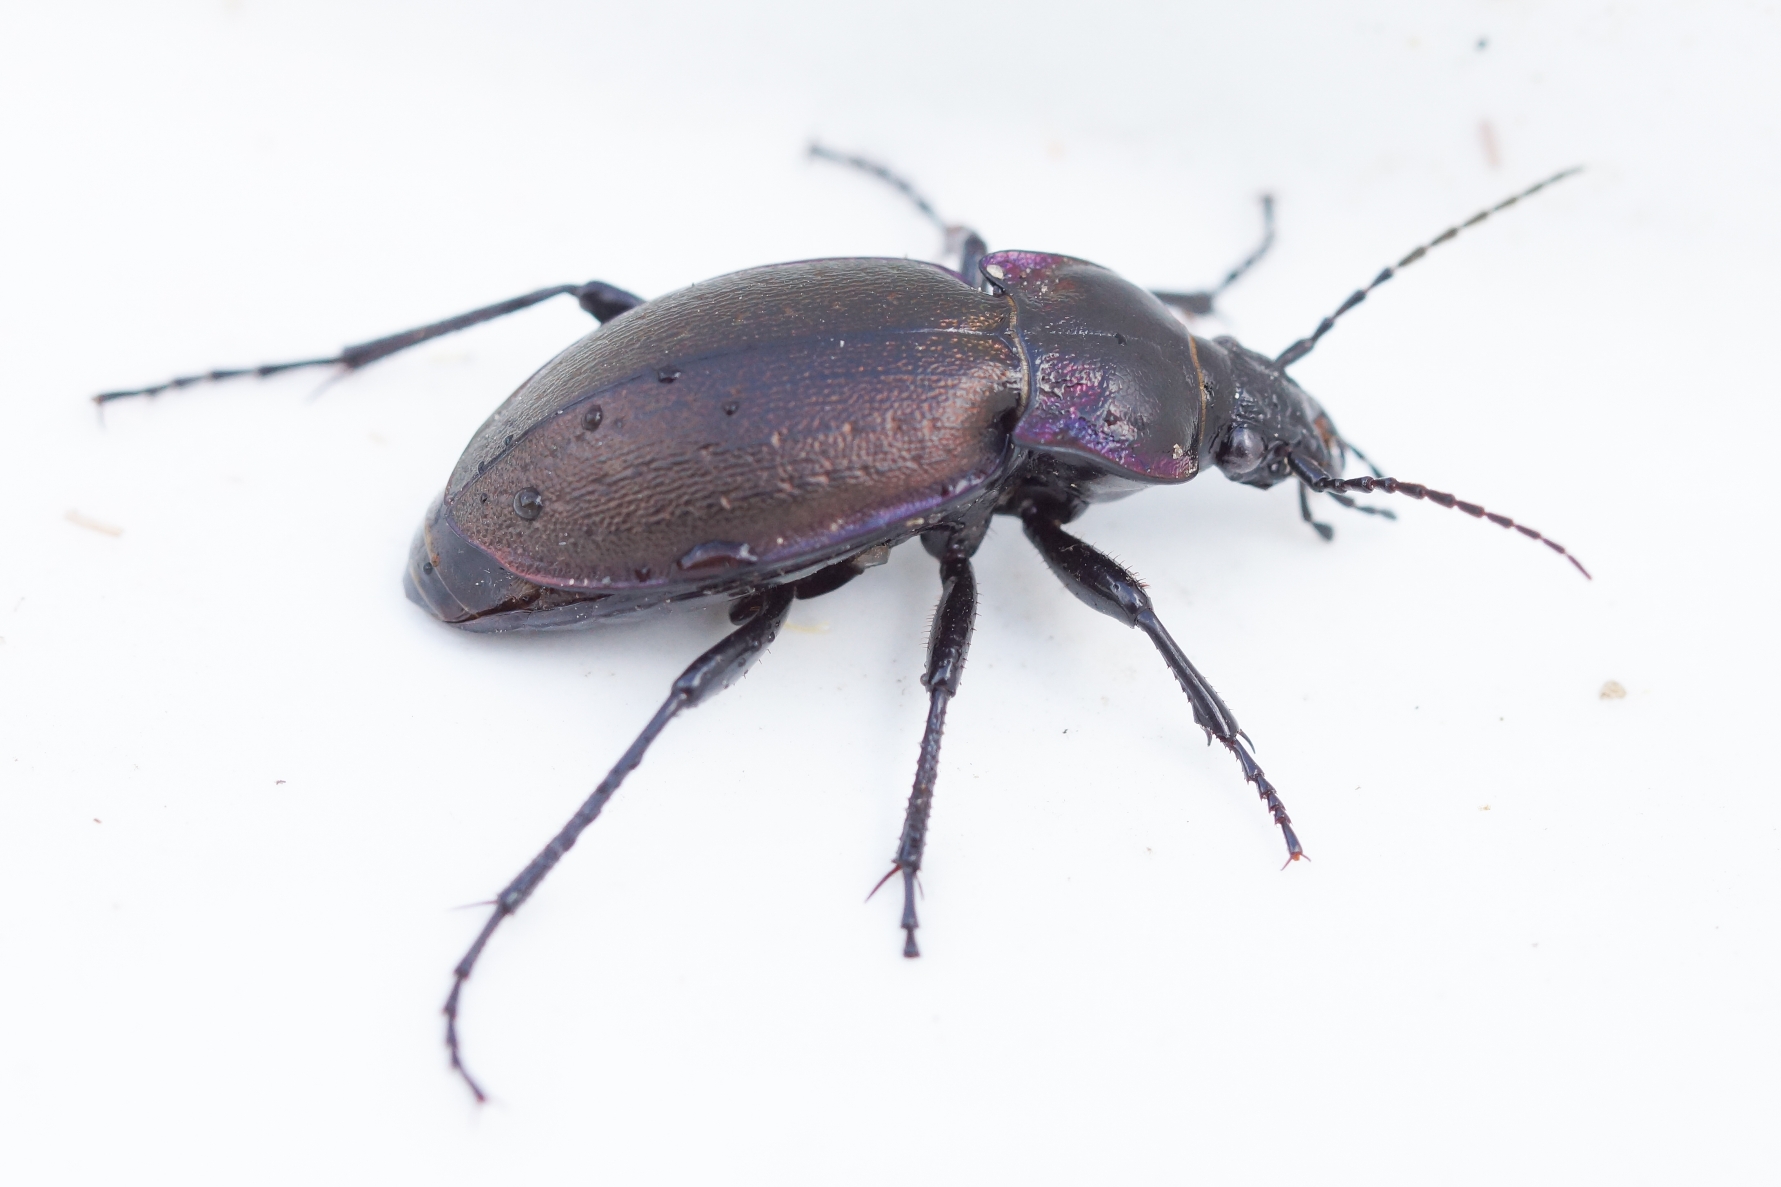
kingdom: Animalia
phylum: Arthropoda
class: Insecta
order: Coleoptera
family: Carabidae
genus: Carabus
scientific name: Carabus nemoralis
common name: Kratløber
